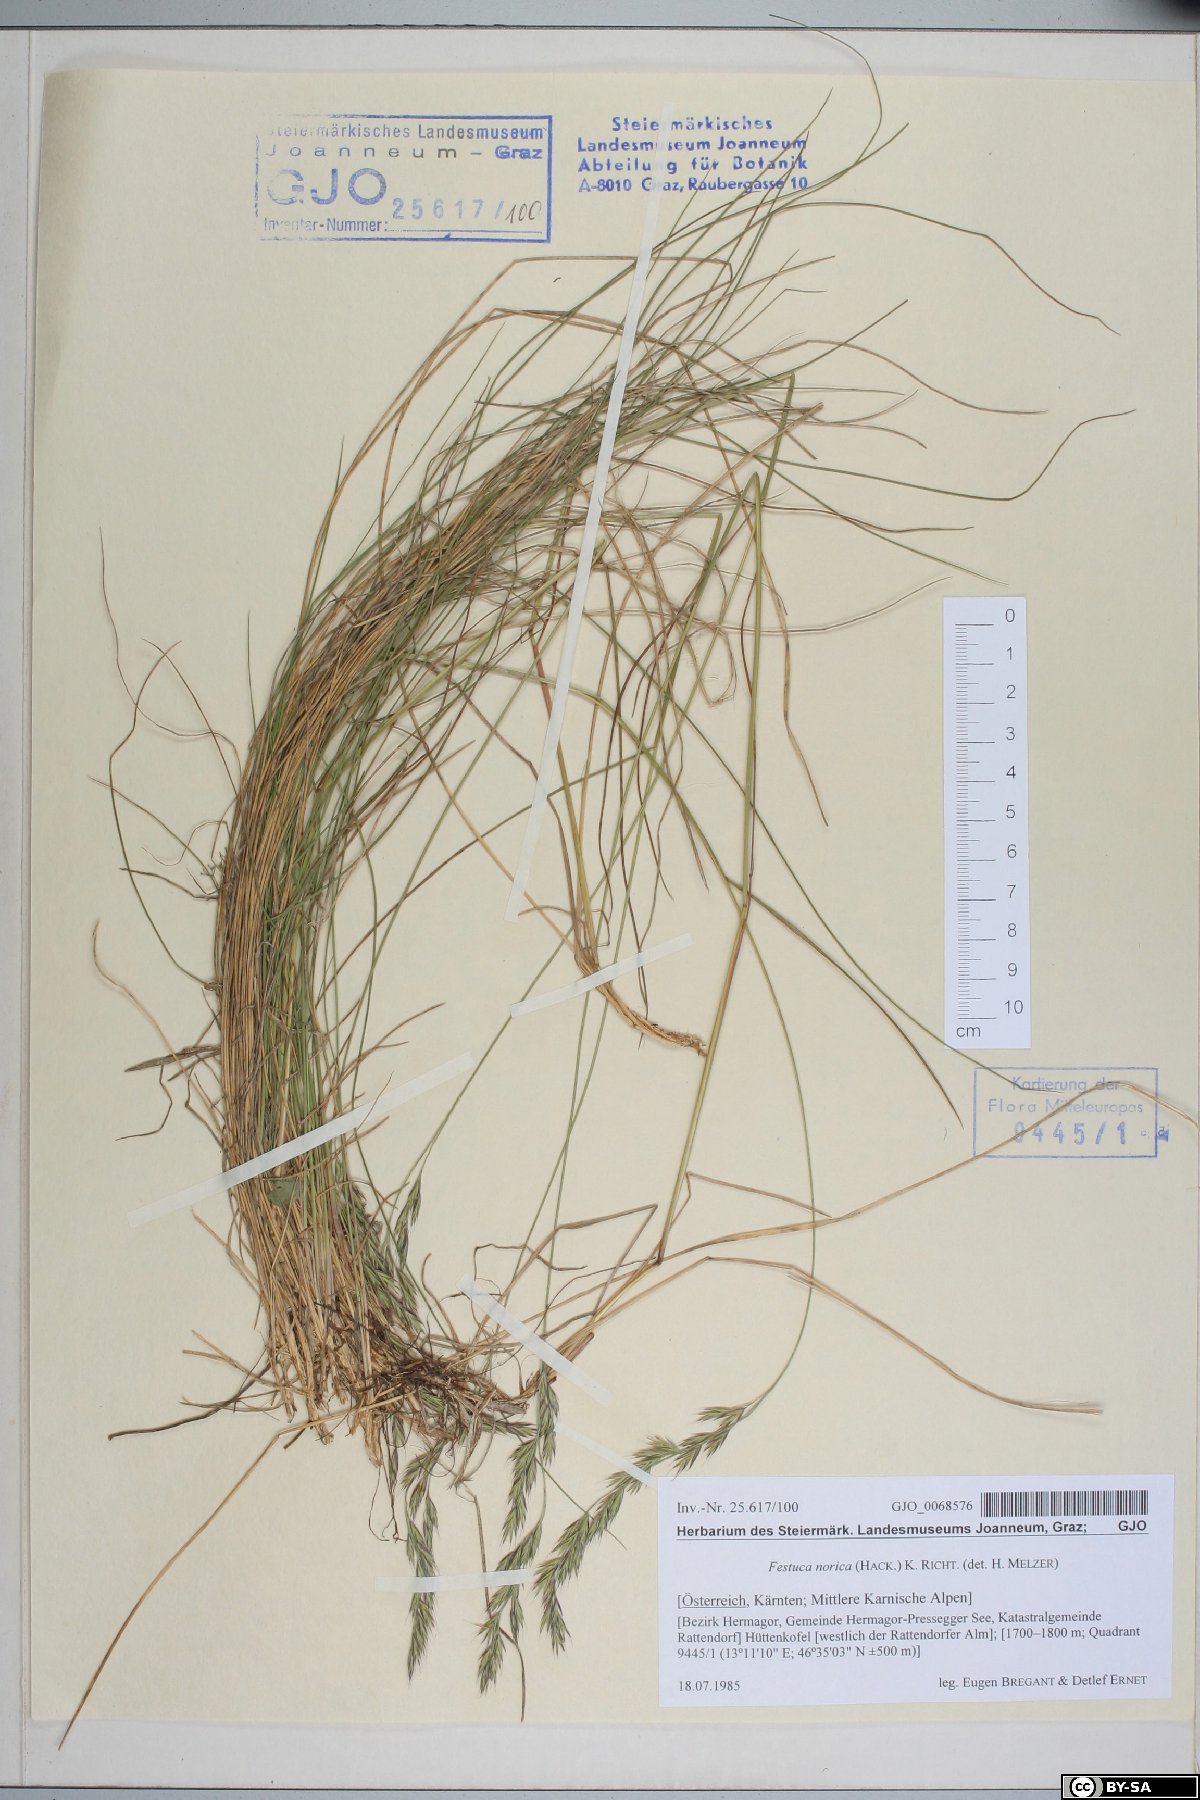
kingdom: Plantae
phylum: Tracheophyta
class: Liliopsida
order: Poales
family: Poaceae
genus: Festuca
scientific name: Festuca norica
